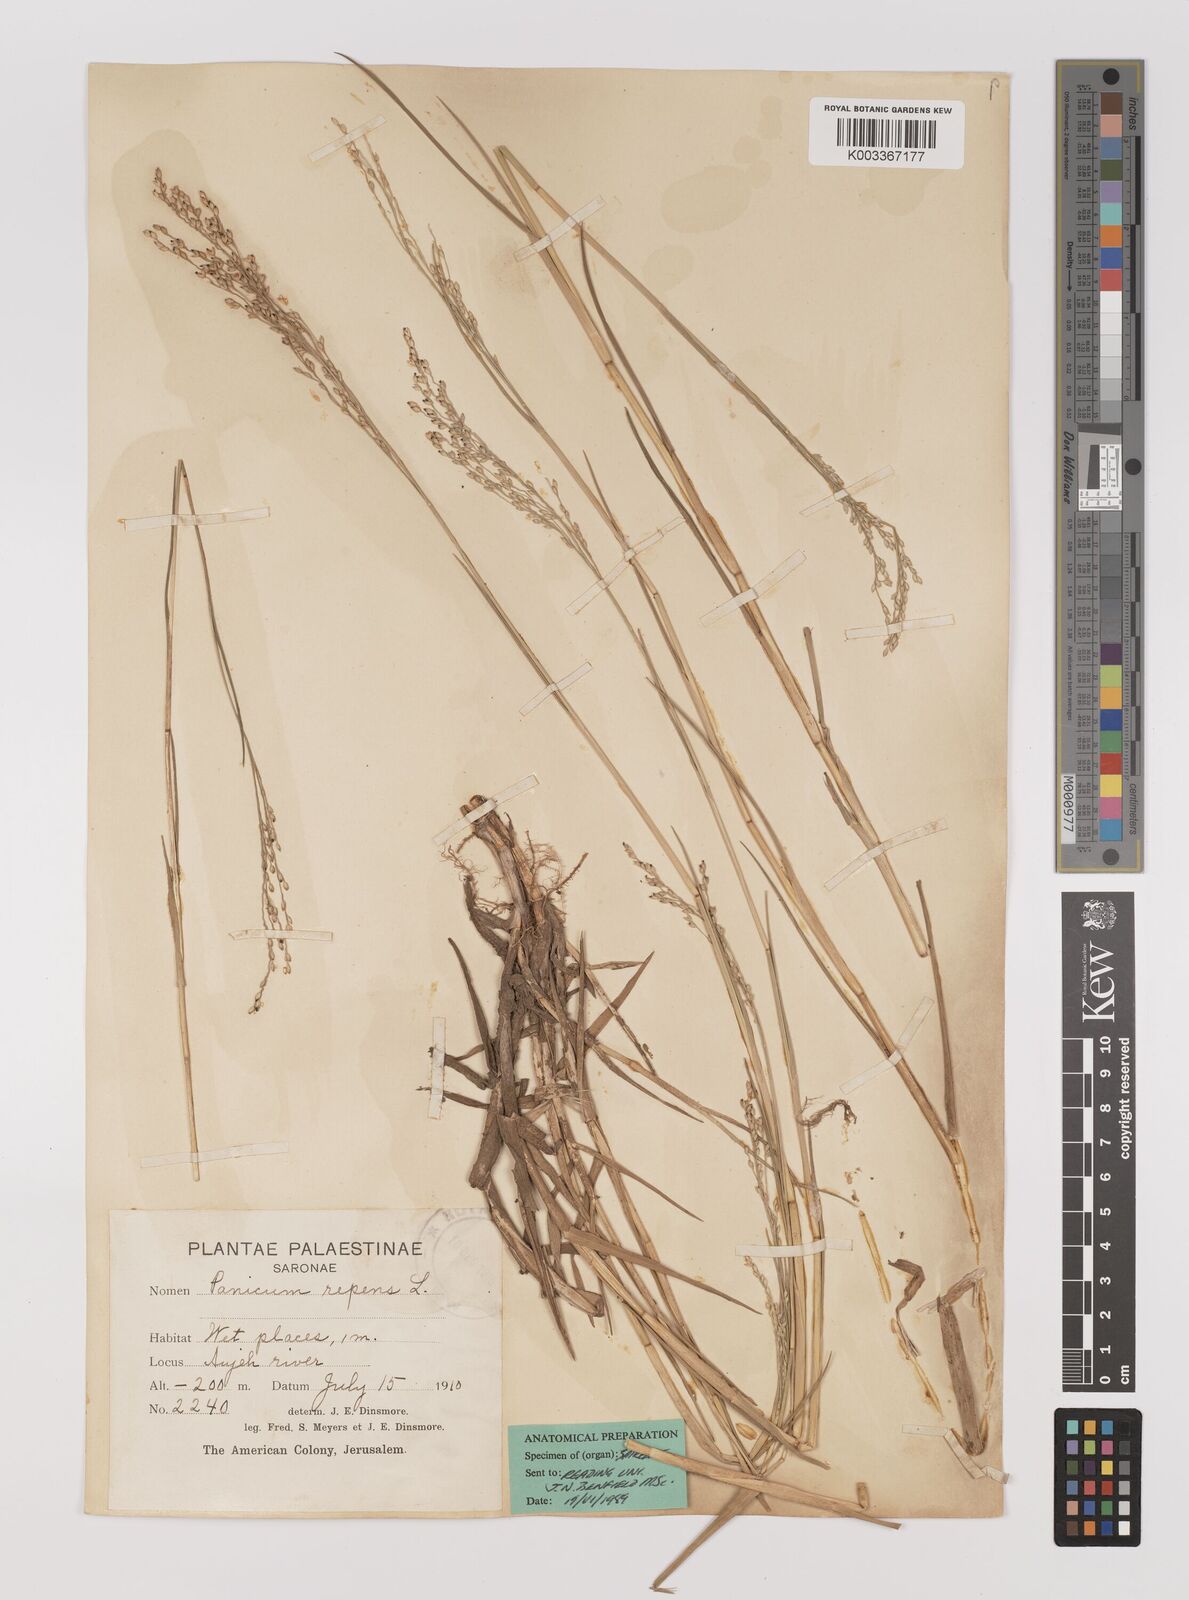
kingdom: Plantae
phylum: Tracheophyta
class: Liliopsida
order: Poales
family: Poaceae
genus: Panicum
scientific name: Panicum repens
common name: Torpedo grass
